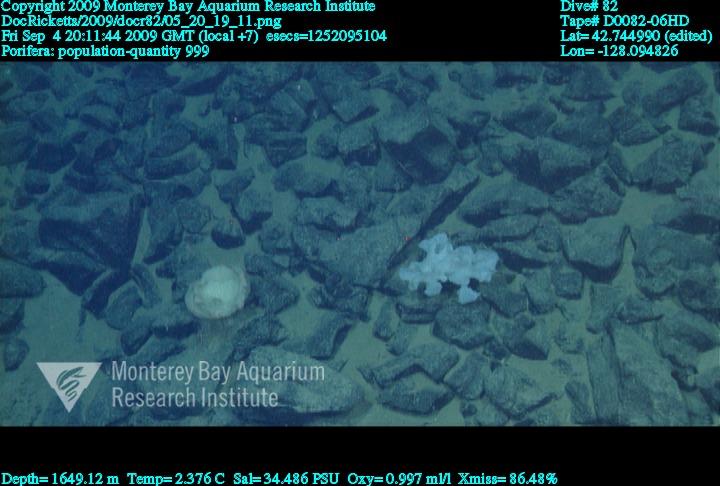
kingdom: Animalia
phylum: Porifera
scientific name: Porifera
